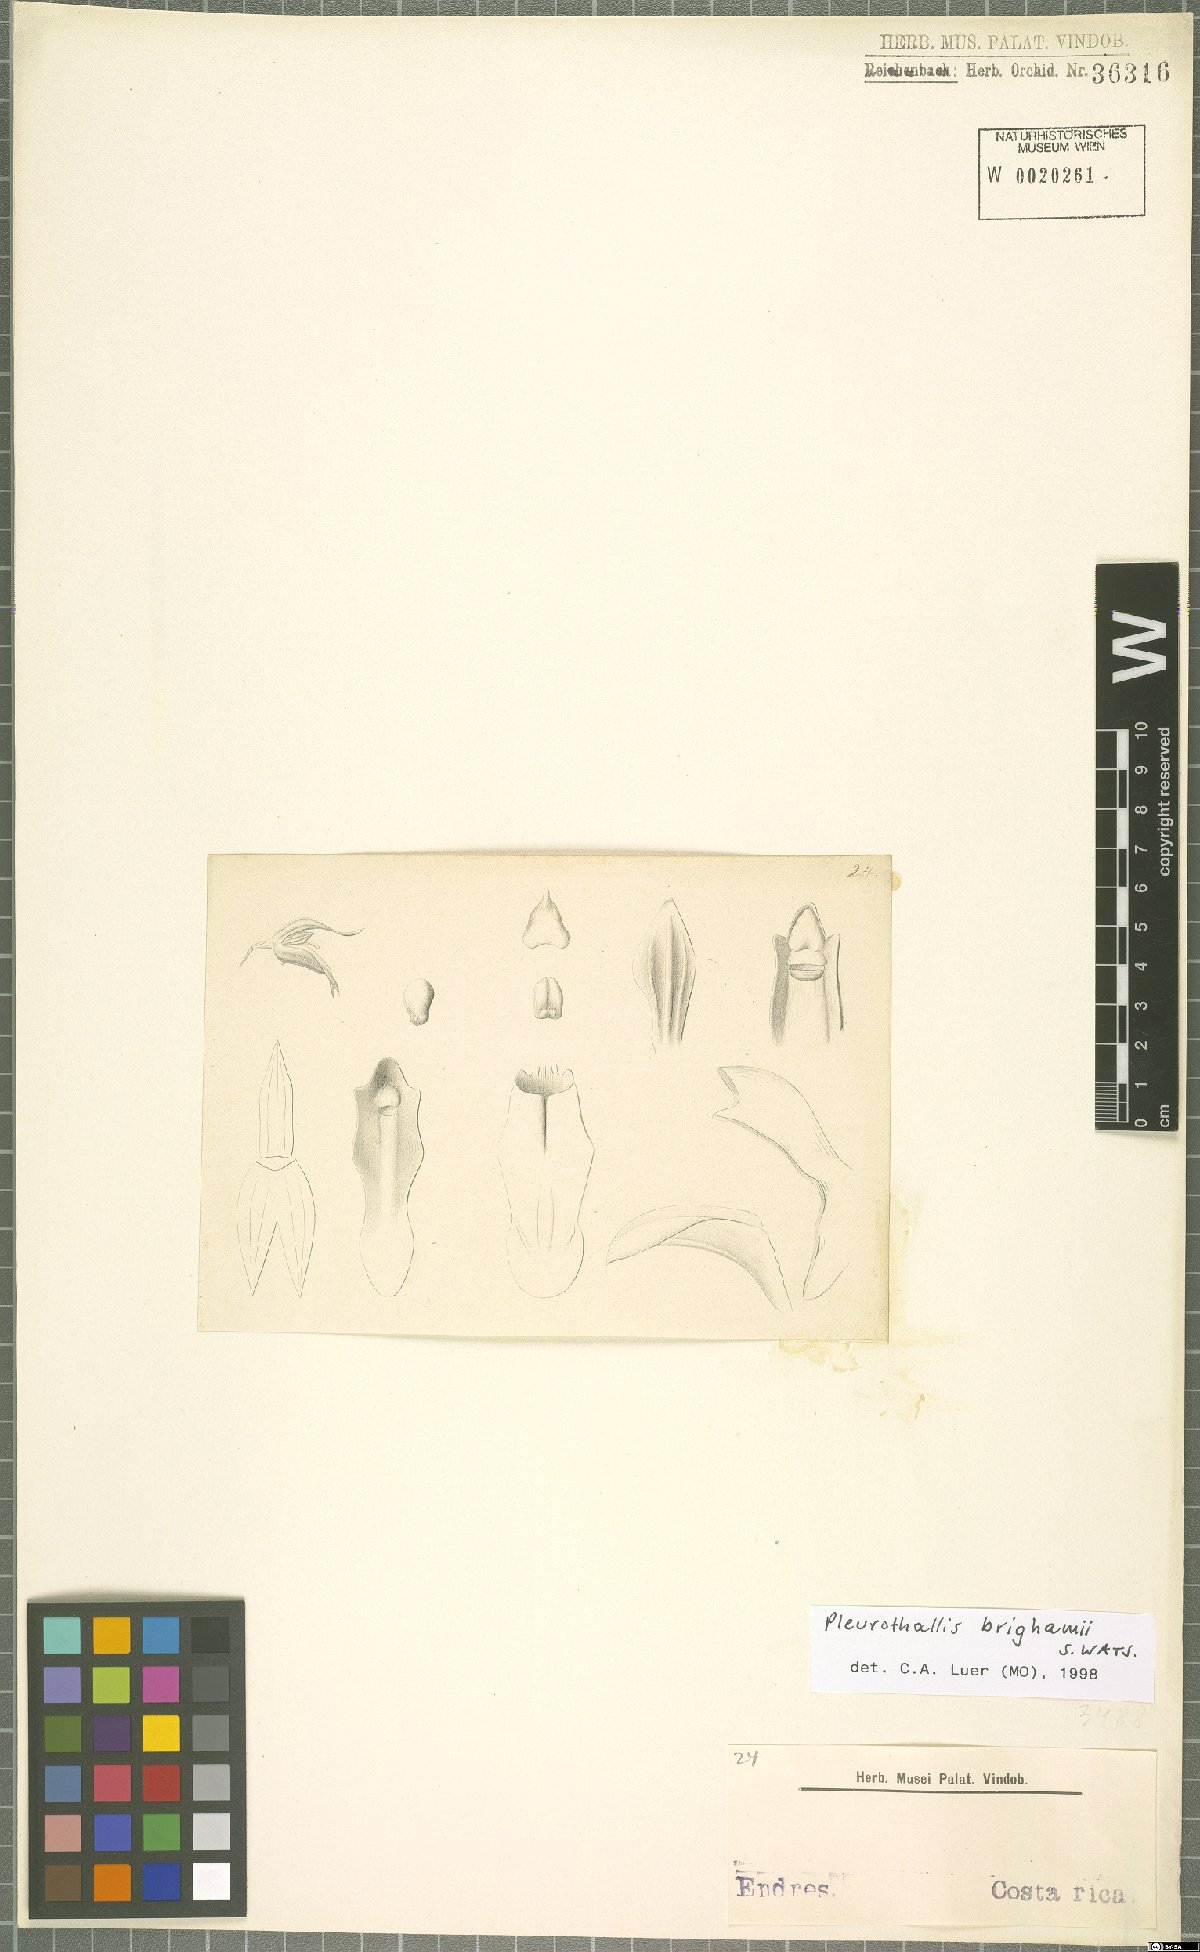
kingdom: Plantae
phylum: Tracheophyta
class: Liliopsida
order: Asparagales
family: Orchidaceae
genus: Specklinia
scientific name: Specklinia brighamii
